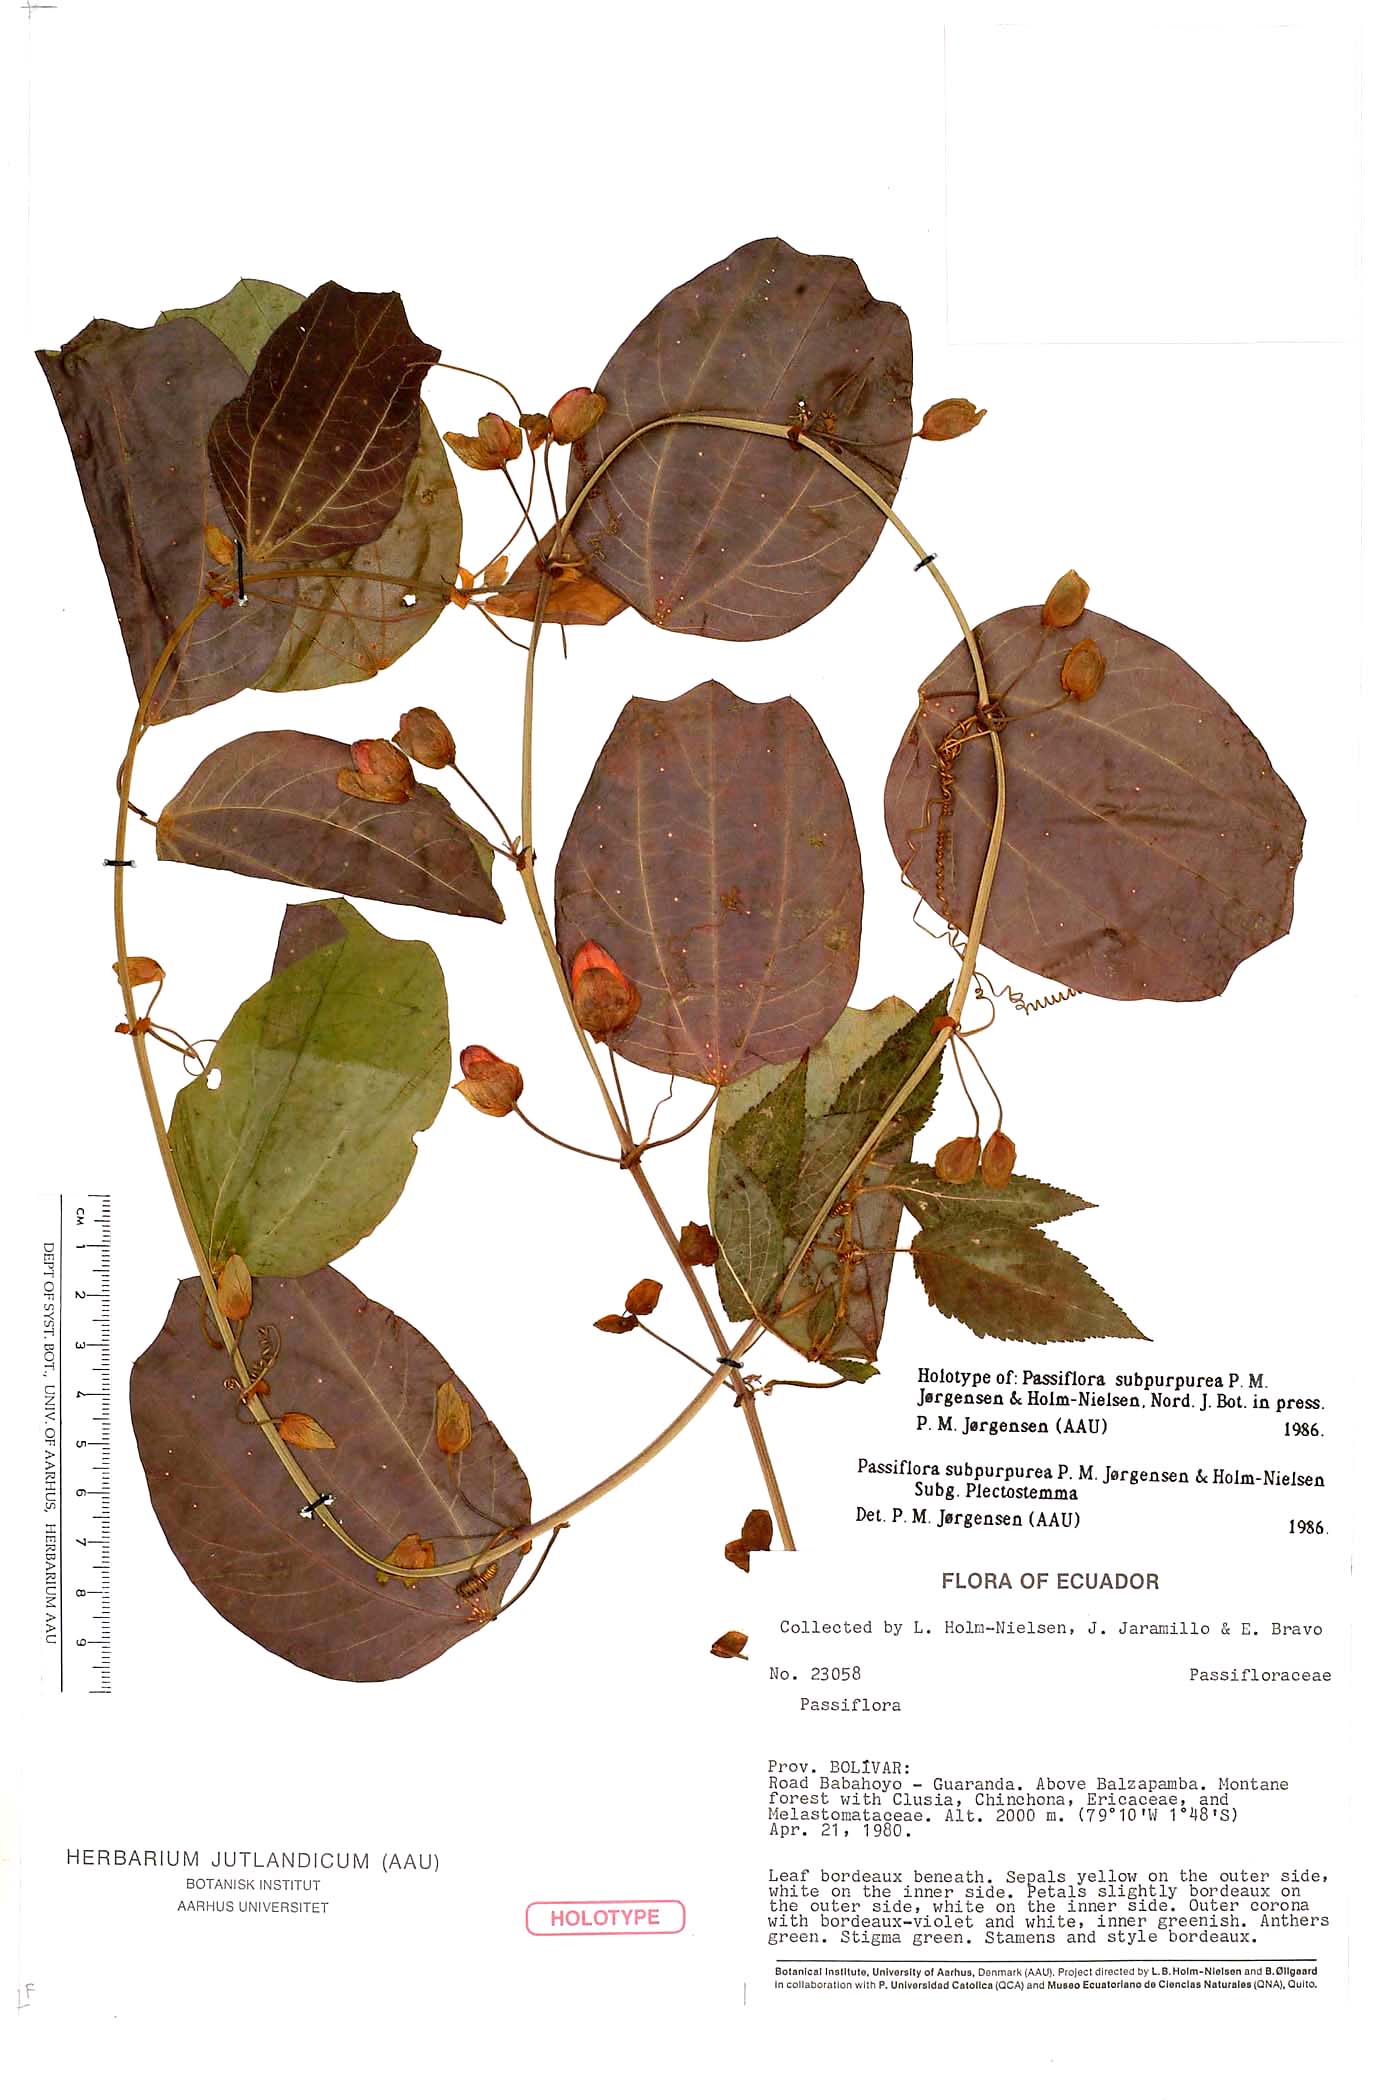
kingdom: Plantae
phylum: Tracheophyta
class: Magnoliopsida
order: Malpighiales
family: Passifloraceae
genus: Passiflora
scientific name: Passiflora subpurpurea
